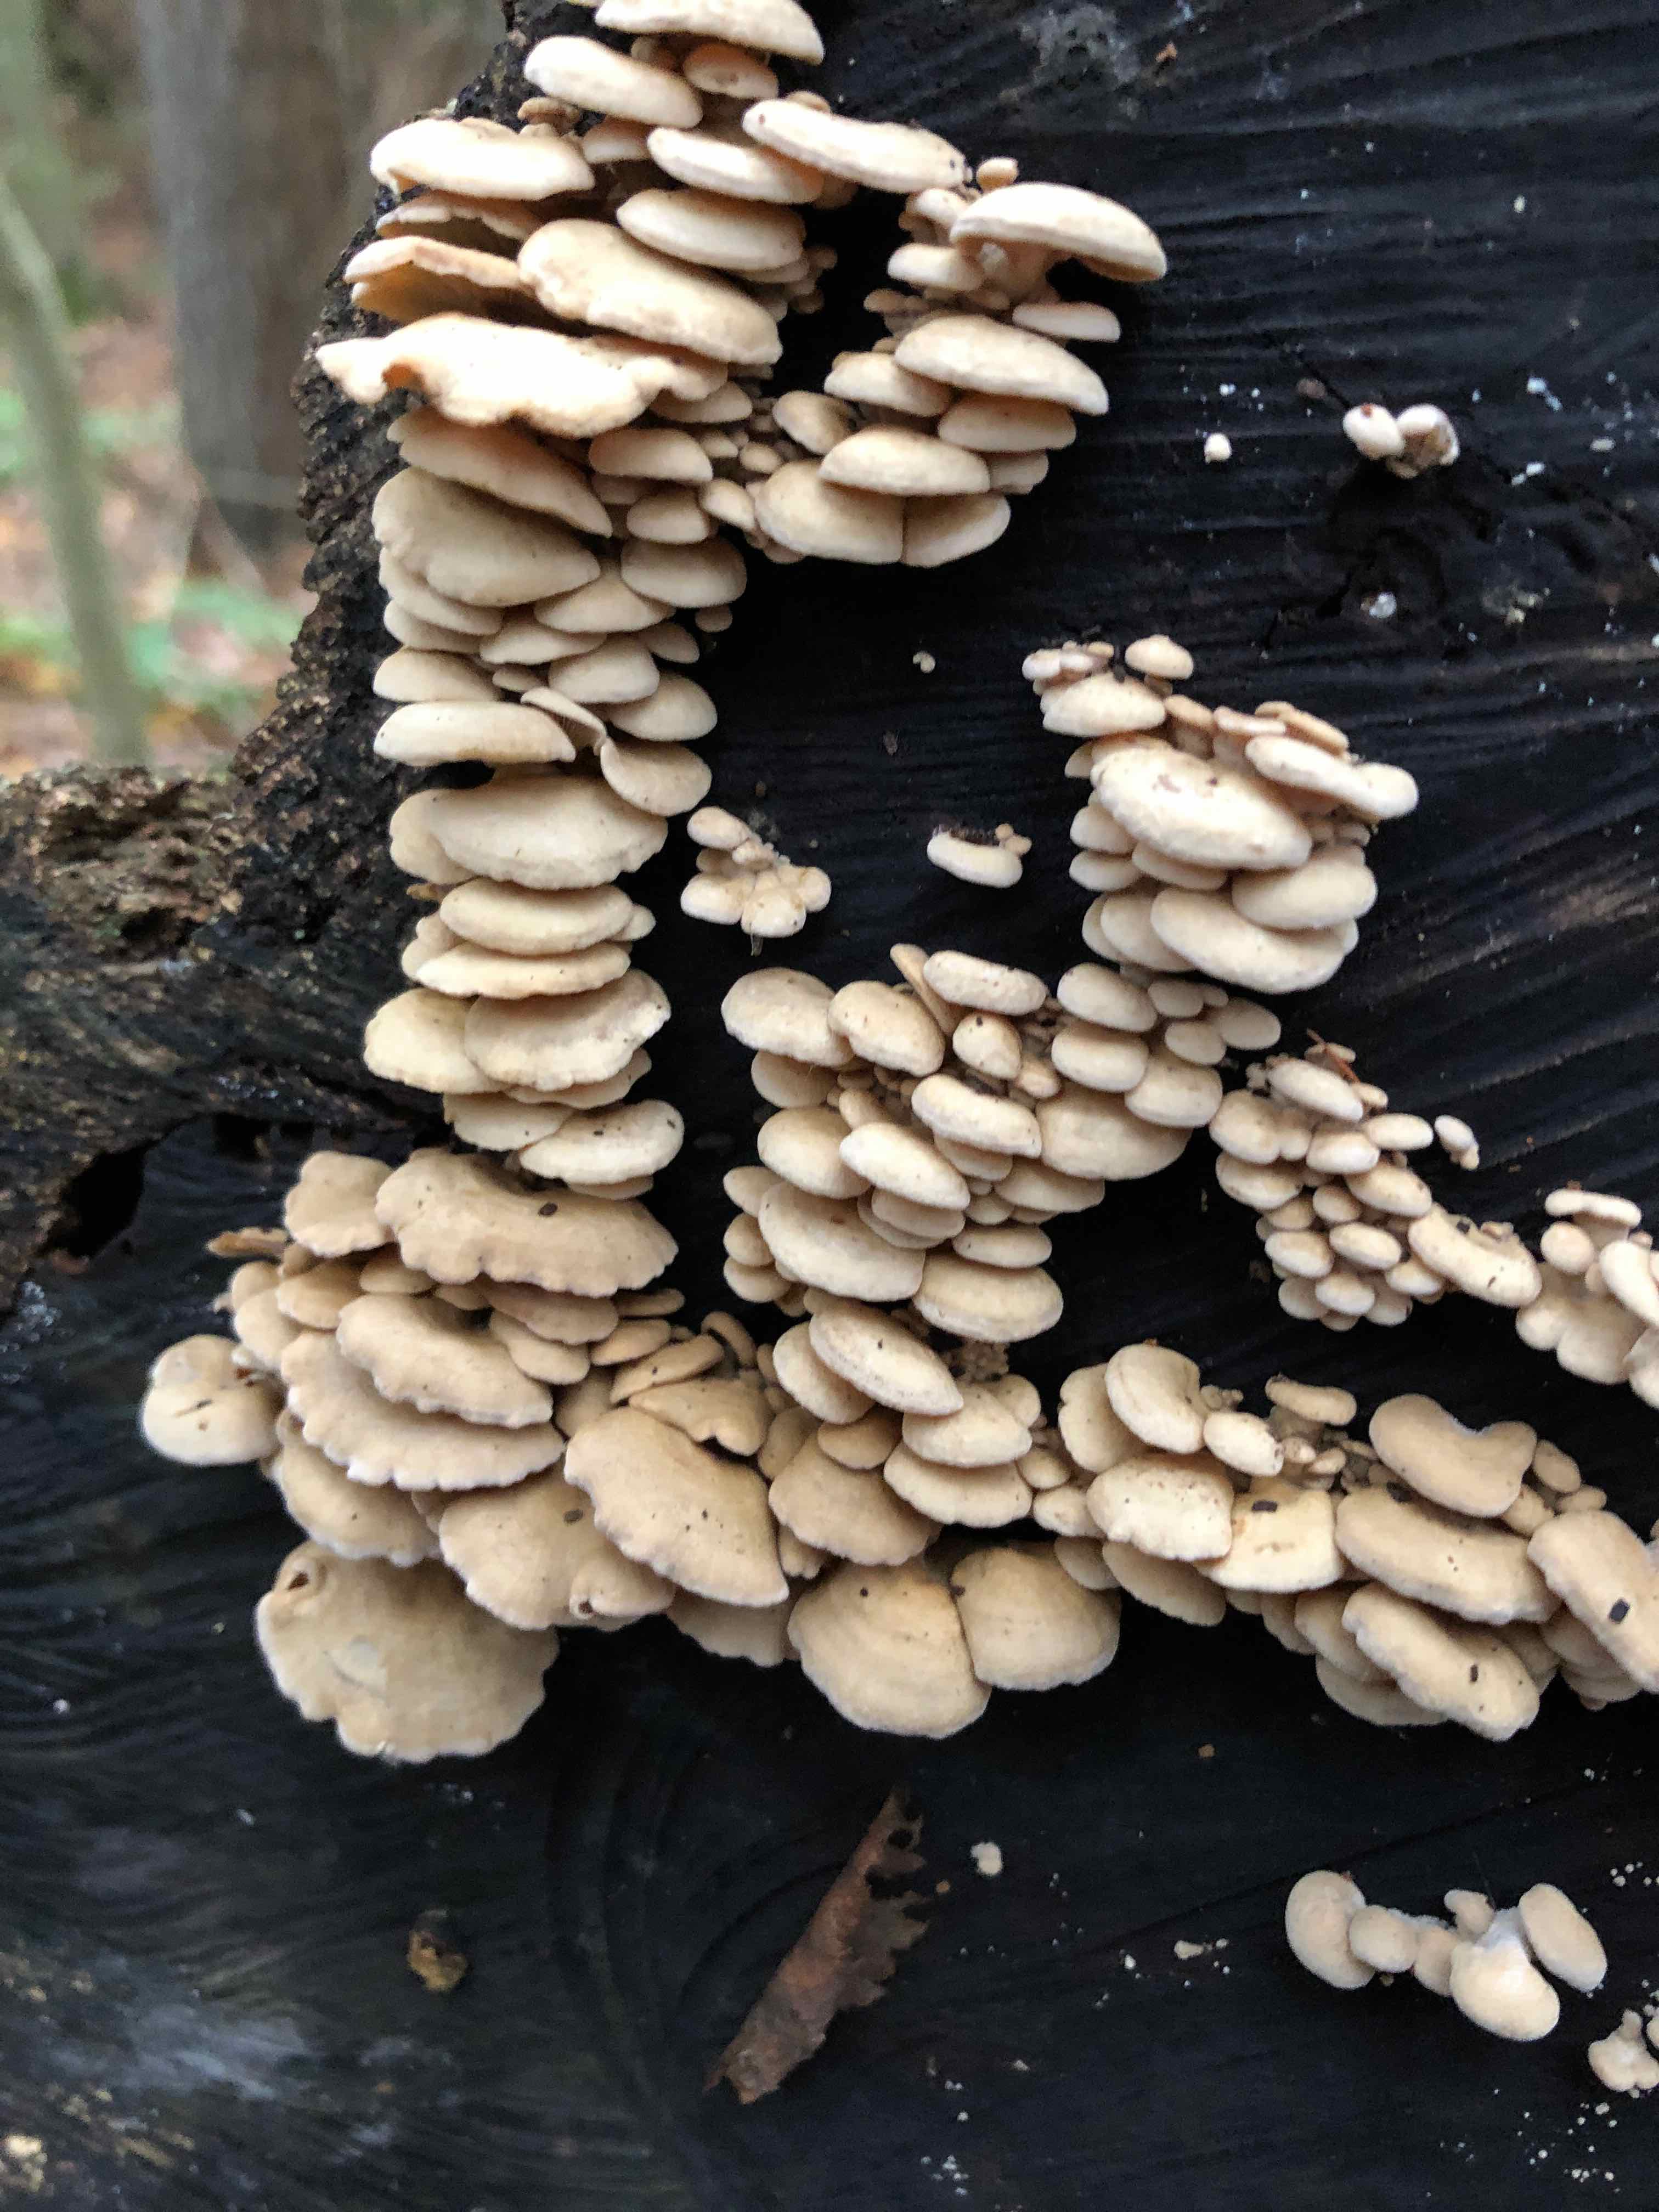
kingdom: Fungi
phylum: Basidiomycota
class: Agaricomycetes
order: Agaricales
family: Mycenaceae
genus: Panellus
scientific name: Panellus stipticus
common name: kliddet epaulethat
